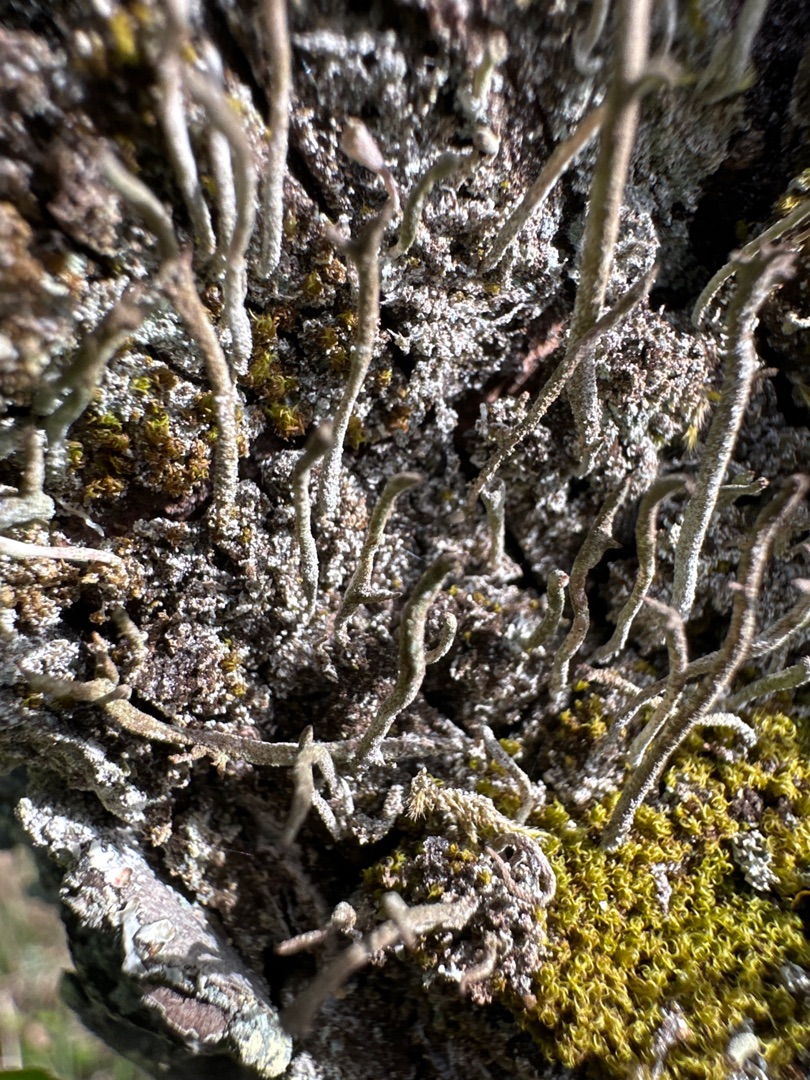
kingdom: Fungi
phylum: Ascomycota
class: Lecanoromycetes
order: Lecanorales
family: Cladoniaceae
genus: Cladonia
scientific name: Cladonia chlorophaea
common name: Brungrøn bægerlav
